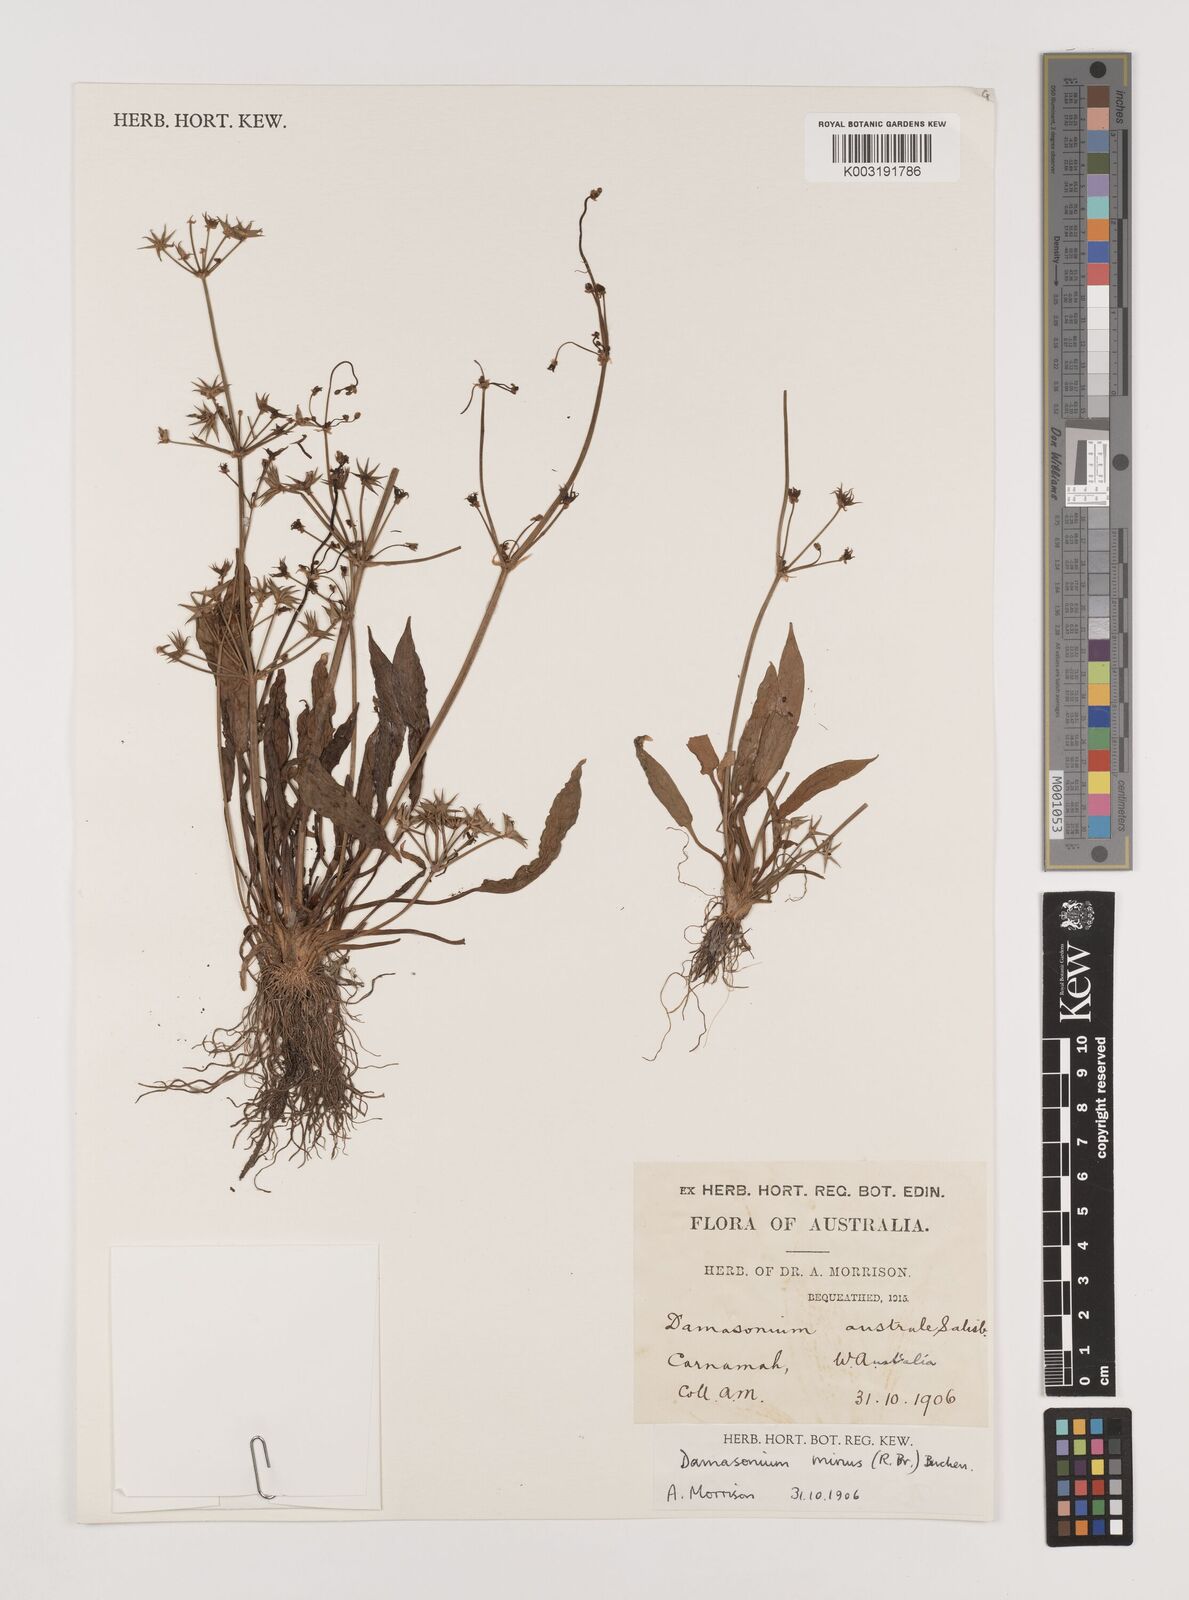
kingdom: Plantae
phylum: Tracheophyta
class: Liliopsida
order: Alismatales
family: Alismataceae
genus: Damasonium
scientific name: Damasonium minus
